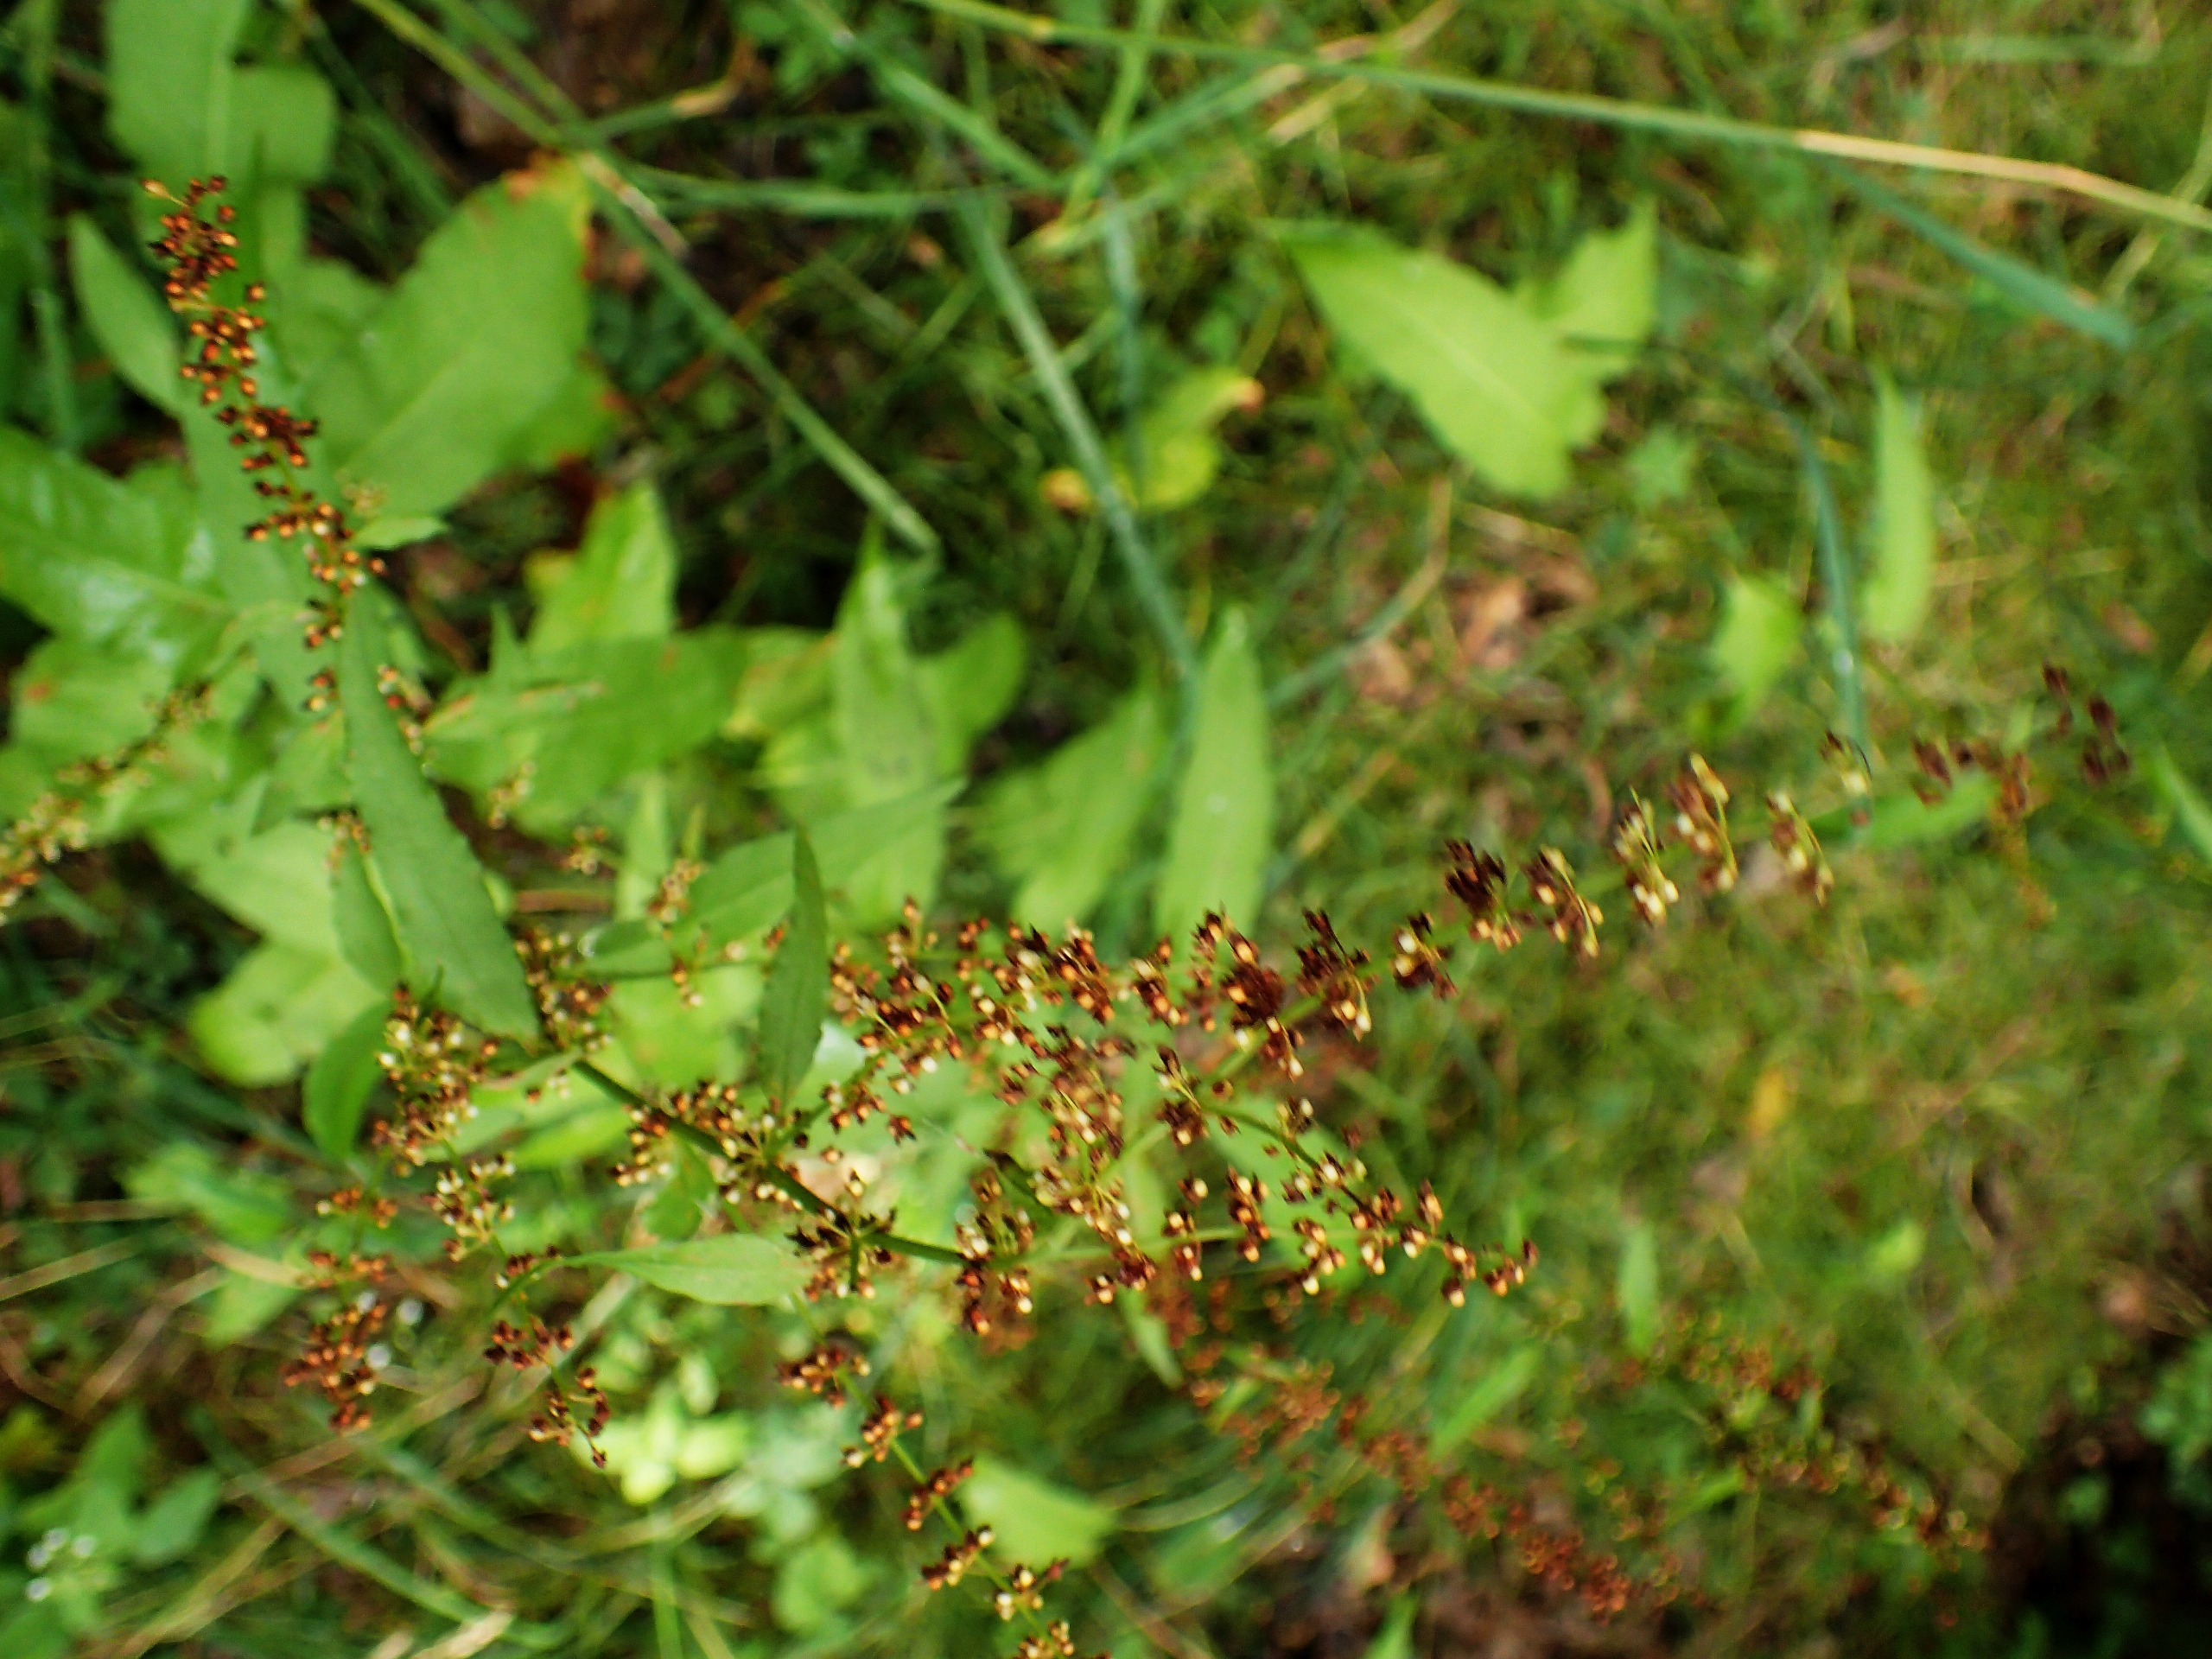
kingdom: Plantae
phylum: Tracheophyta
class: Magnoliopsida
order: Caryophyllales
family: Polygonaceae
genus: Rumex
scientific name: Rumex sanguineus
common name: Skov-skræppe
